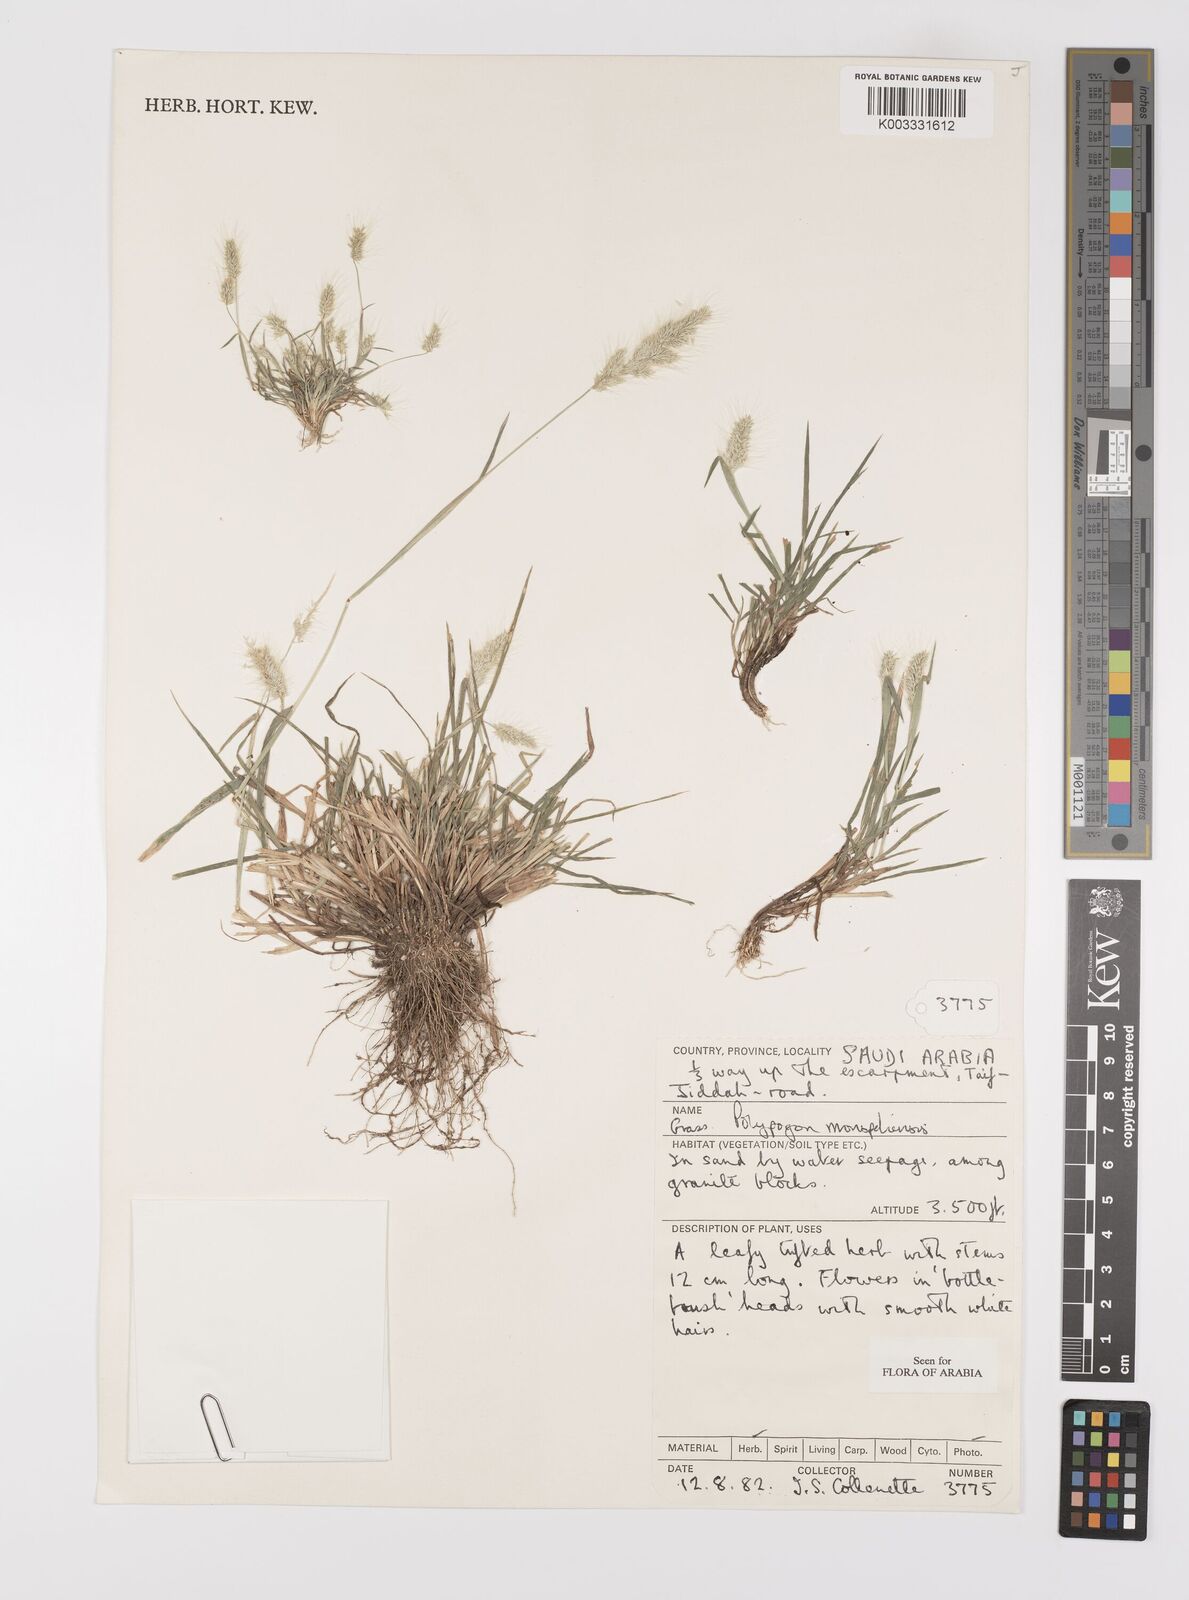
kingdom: Plantae
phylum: Tracheophyta
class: Liliopsida
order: Poales
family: Poaceae
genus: Polypogon
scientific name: Polypogon monspeliensis
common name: Annual rabbitsfoot grass
